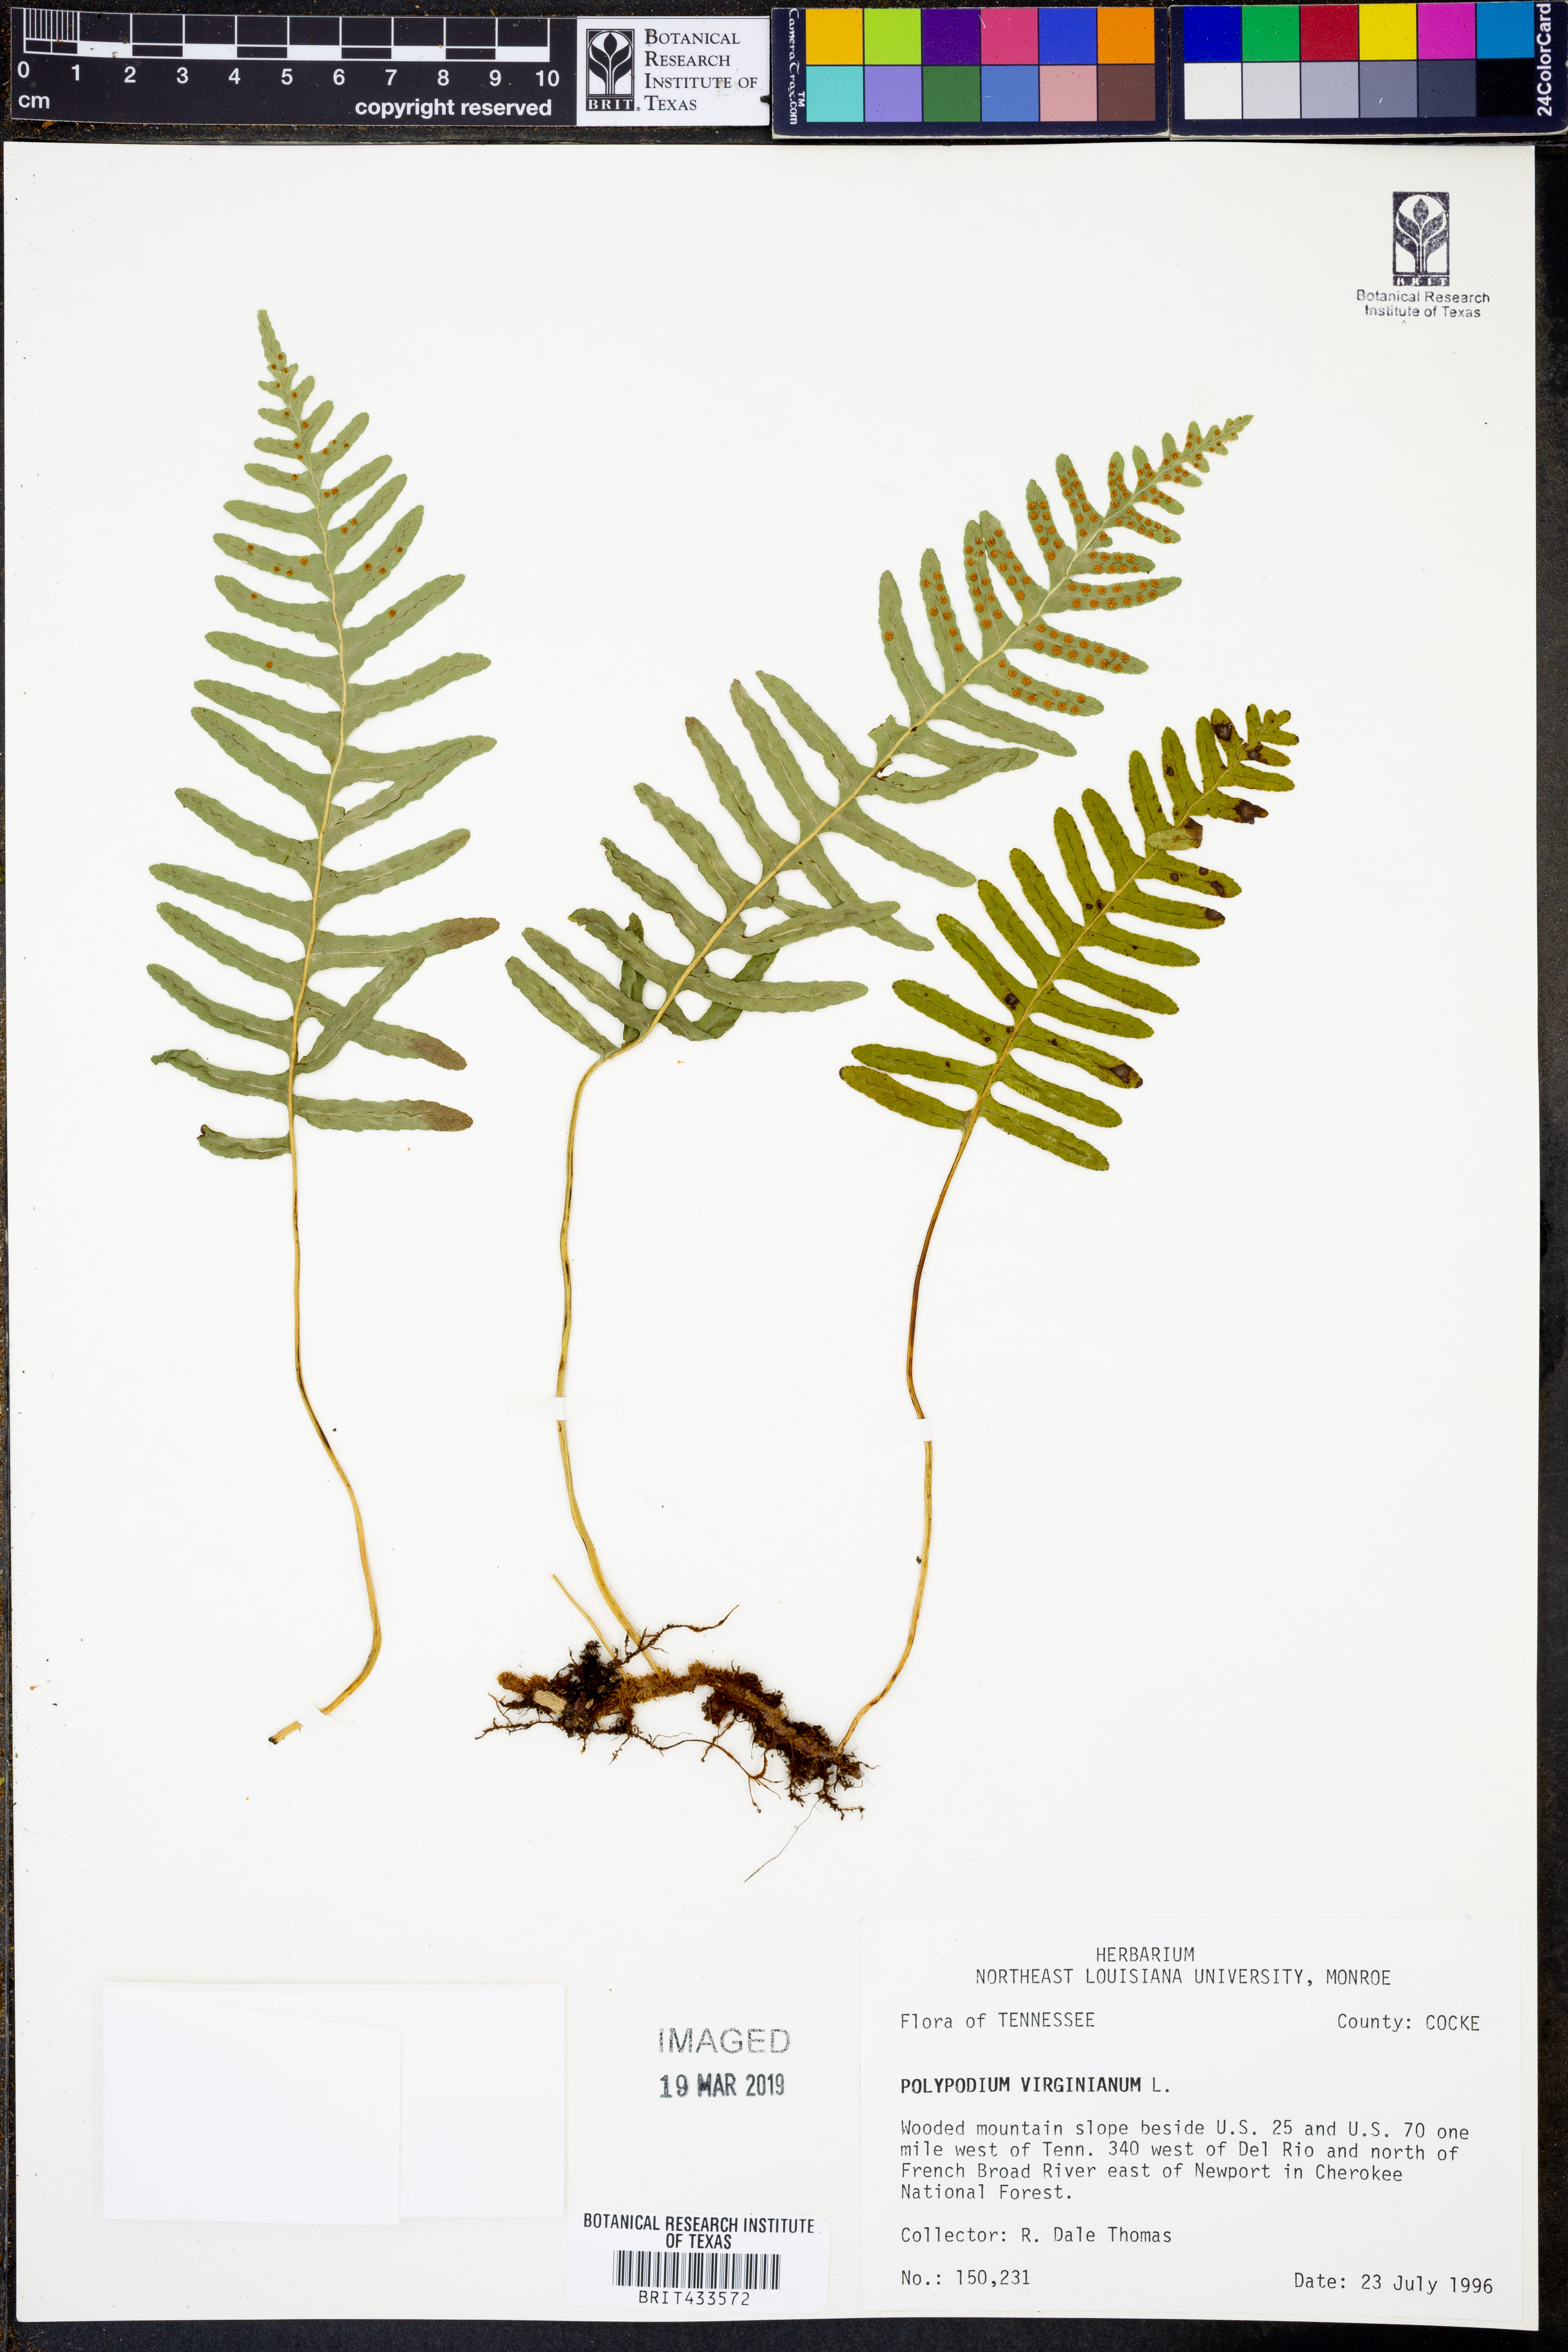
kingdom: Plantae
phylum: Tracheophyta
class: Polypodiopsida
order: Polypodiales
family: Polypodiaceae
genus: Polypodium
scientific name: Polypodium virginianum
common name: American wall fern
